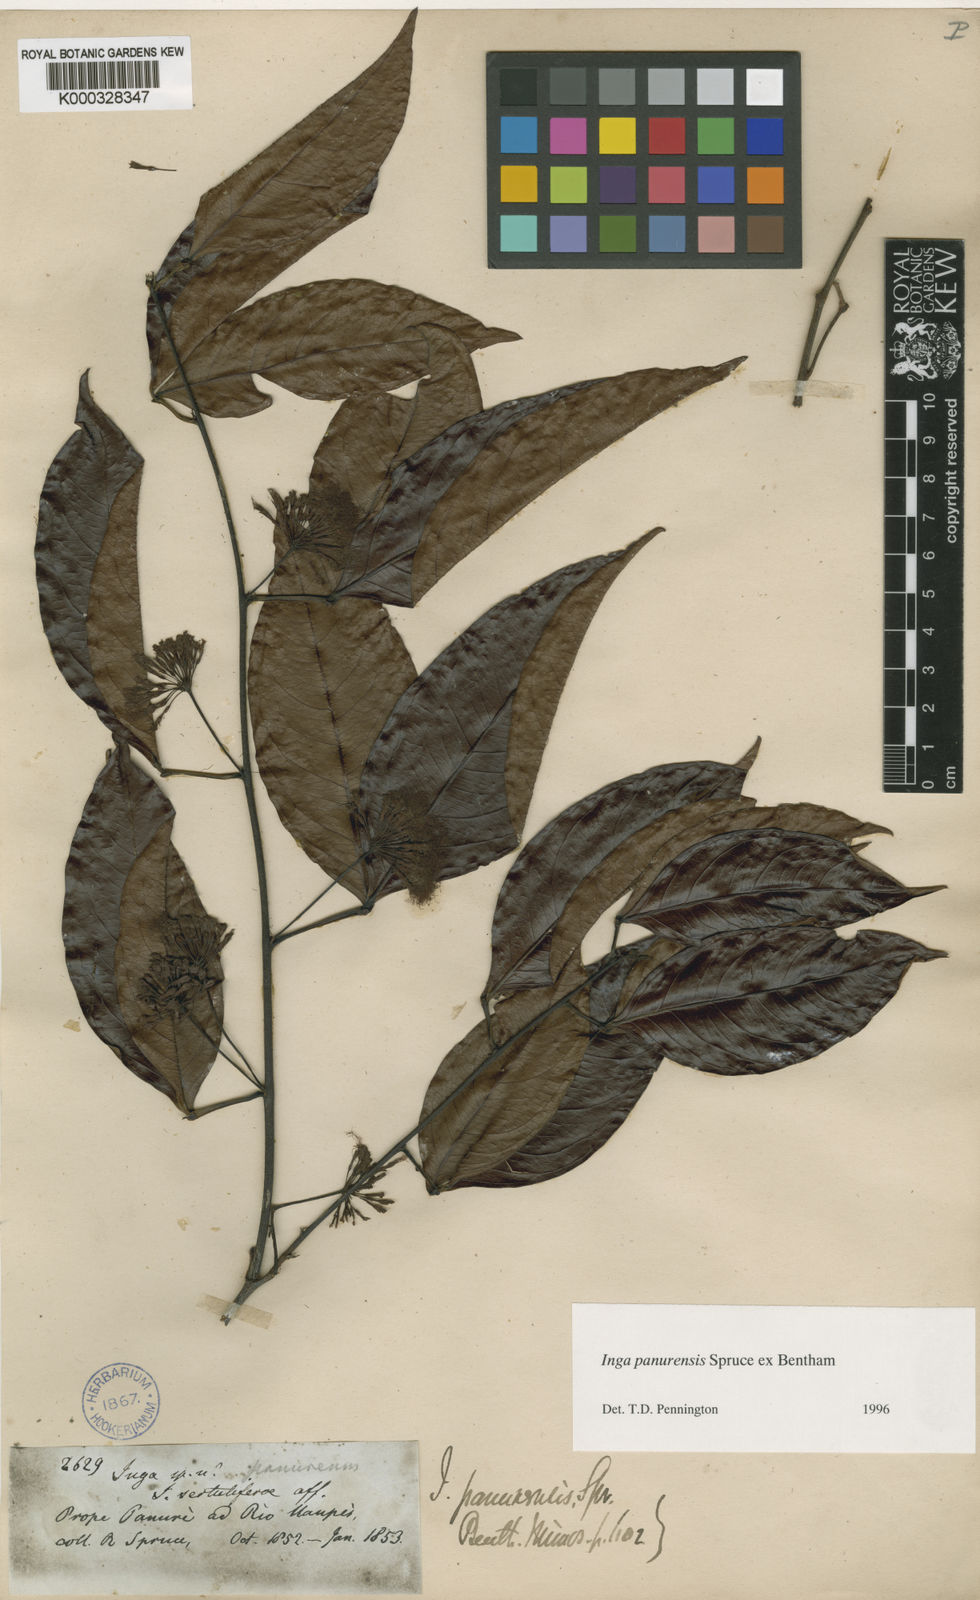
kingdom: Plantae
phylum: Tracheophyta
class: Magnoliopsida
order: Fabales
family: Fabaceae
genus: Inga
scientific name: Inga panurensis
